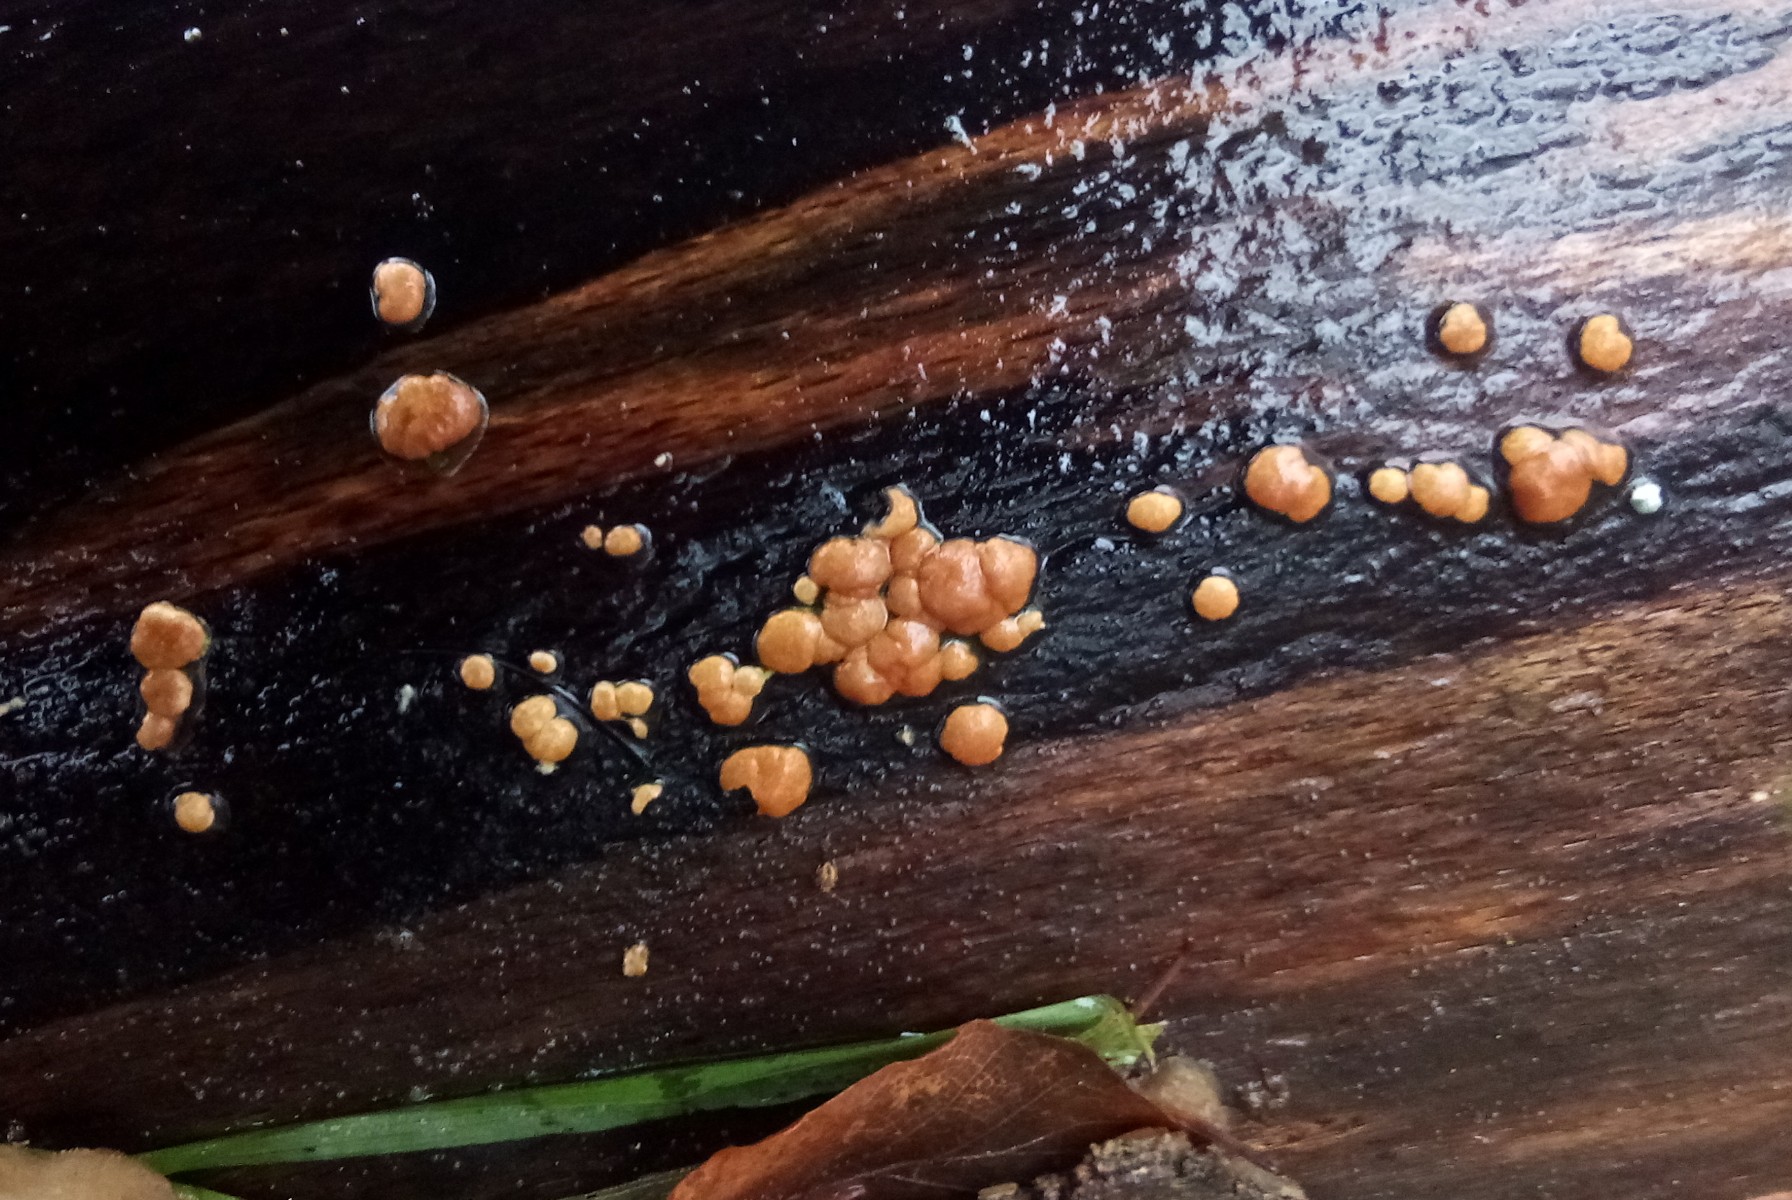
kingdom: Fungi
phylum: Ascomycota
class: Sordariomycetes
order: Hypocreales
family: Hypocreaceae
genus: Trichoderma
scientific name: Trichoderma europaeum
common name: rosabrun kødkerne
